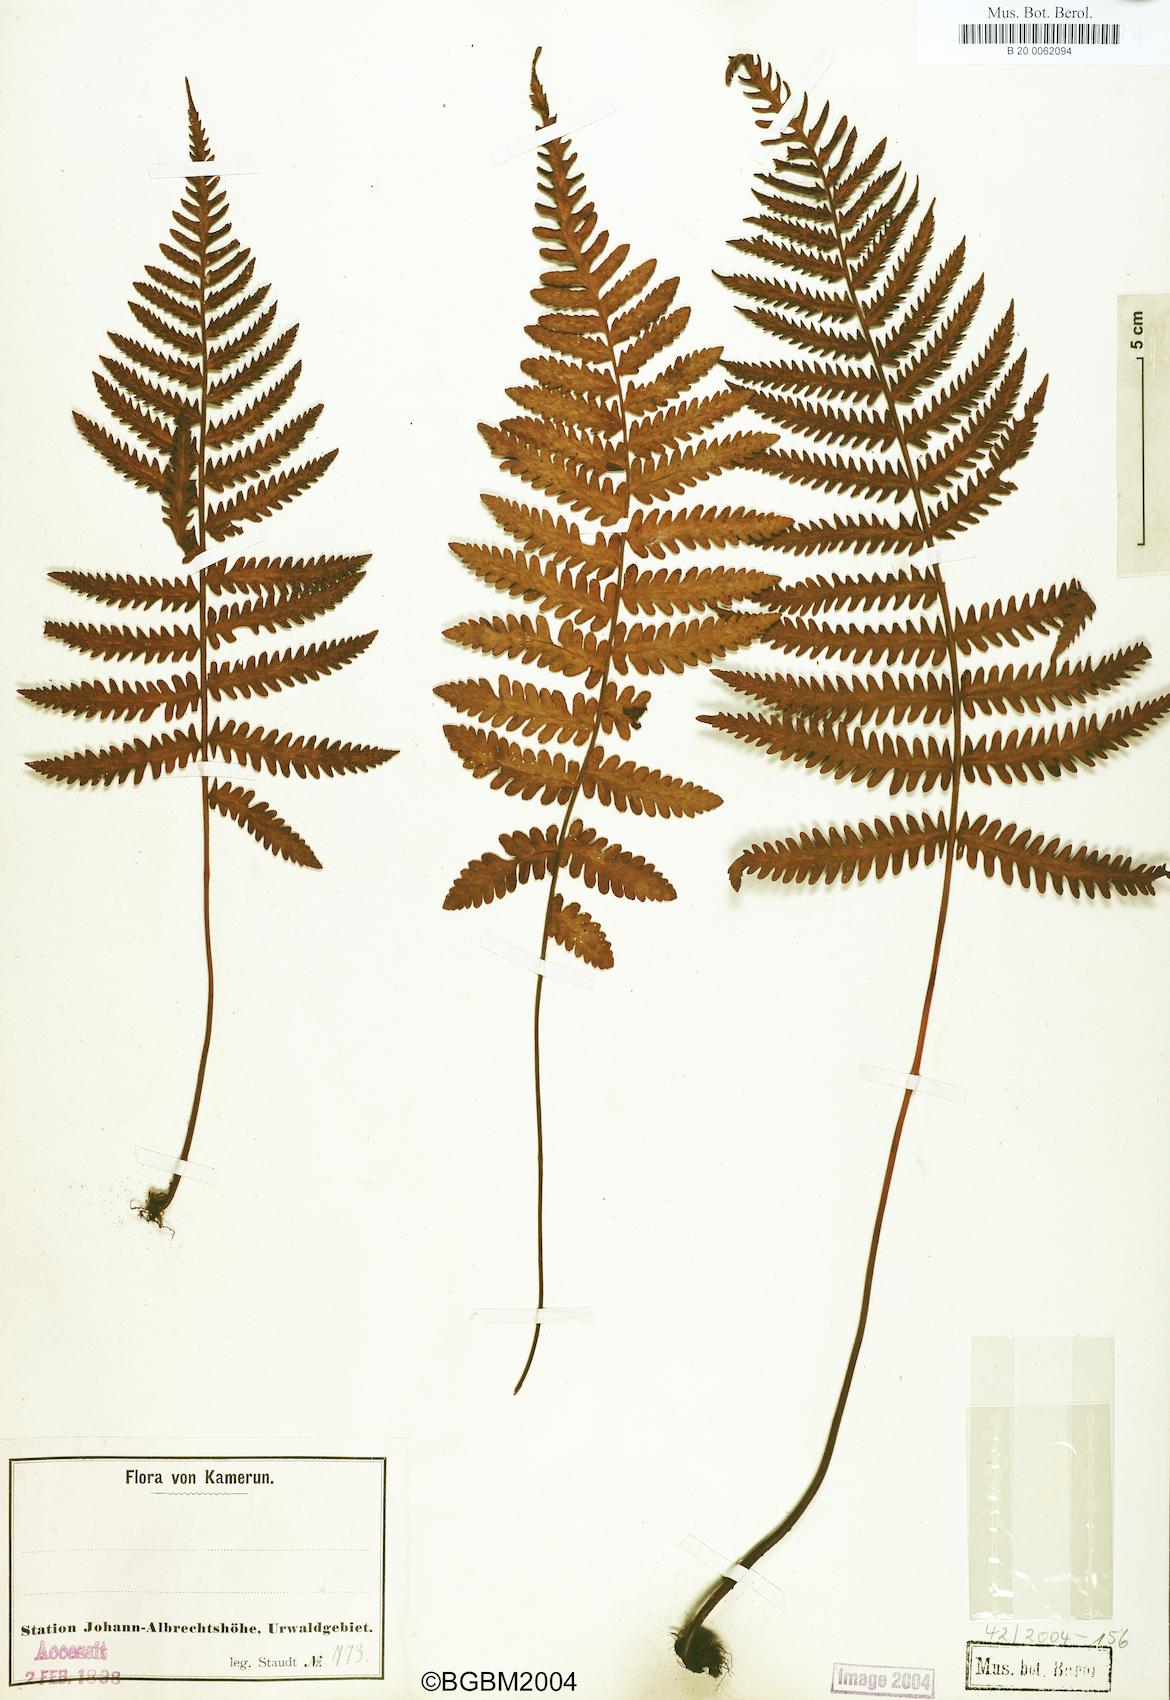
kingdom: Plantae
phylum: Tracheophyta
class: Polypodiopsida
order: Polypodiales
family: Tectariaceae
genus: Arthropteris
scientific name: Arthropteris orientalis
